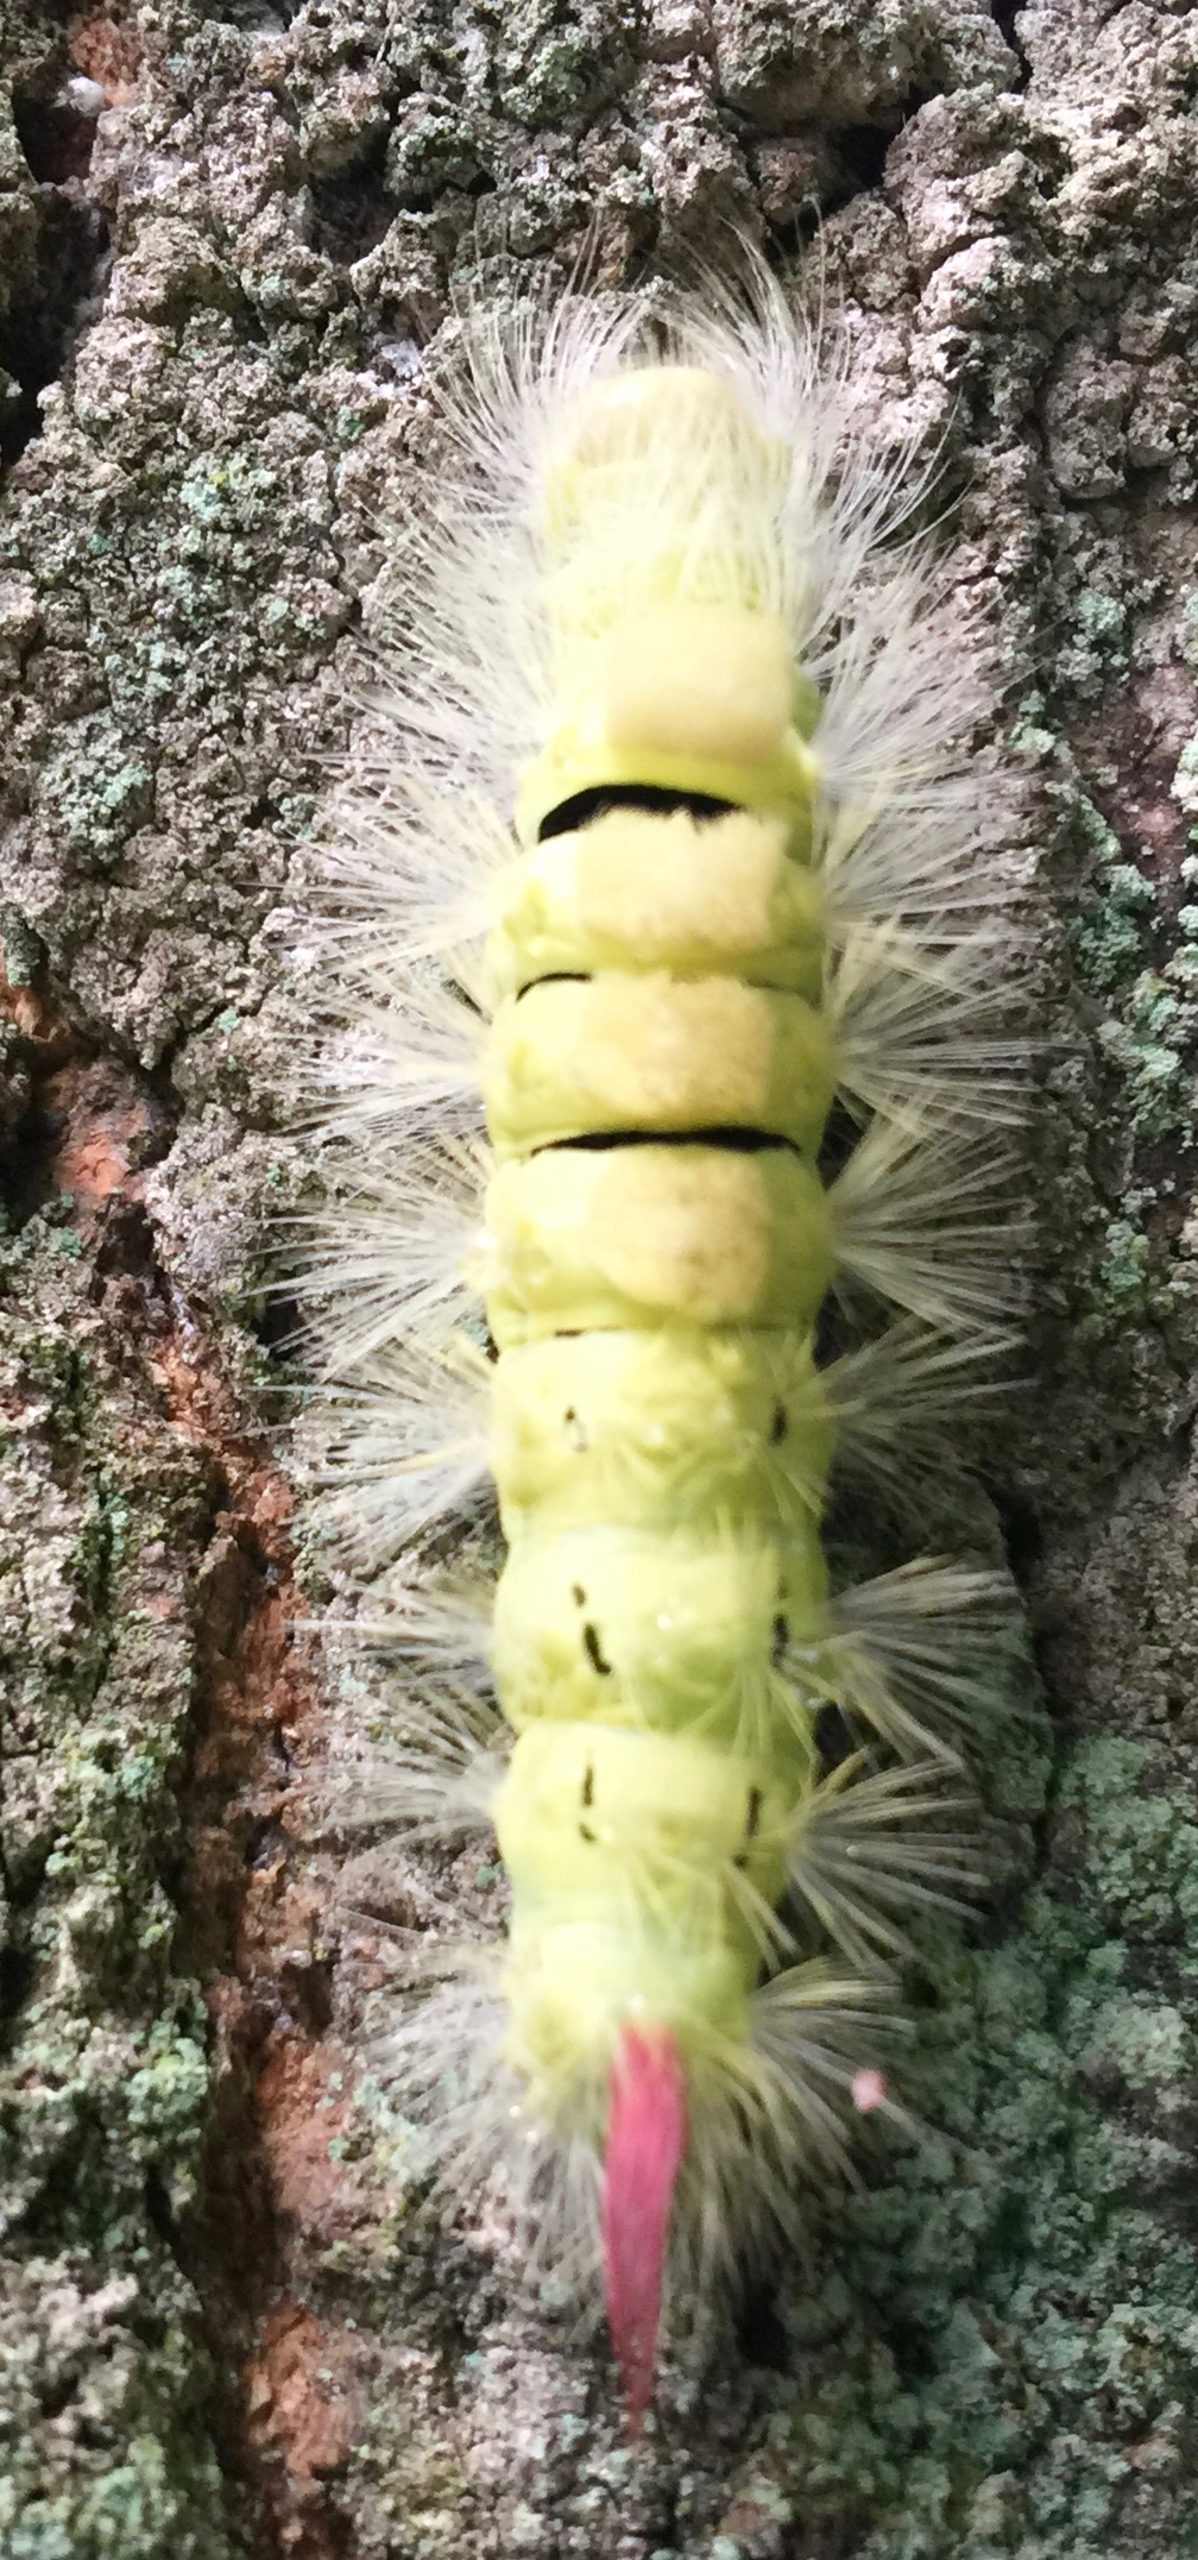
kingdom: Animalia
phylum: Arthropoda
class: Insecta
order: Lepidoptera
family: Erebidae
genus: Calliteara
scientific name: Calliteara pudibunda
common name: Bøgenonne
